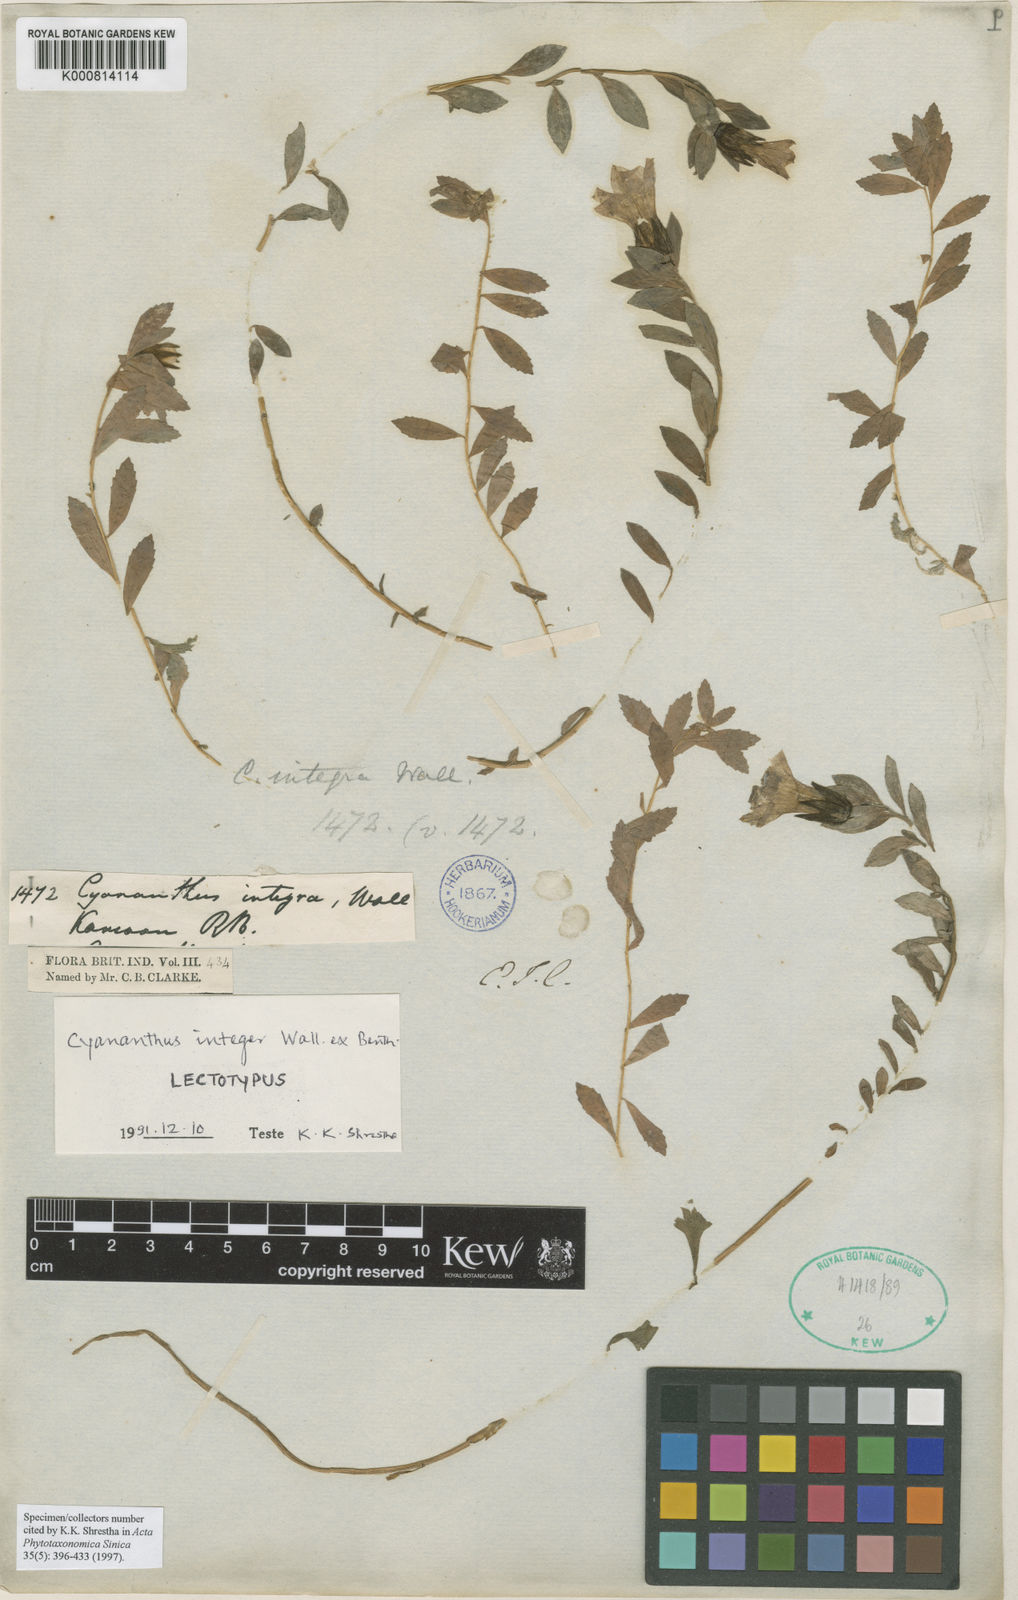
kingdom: Plantae
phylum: Tracheophyta
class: Magnoliopsida
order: Asterales
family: Campanulaceae
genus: Cyananthus
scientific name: Cyananthus integer
